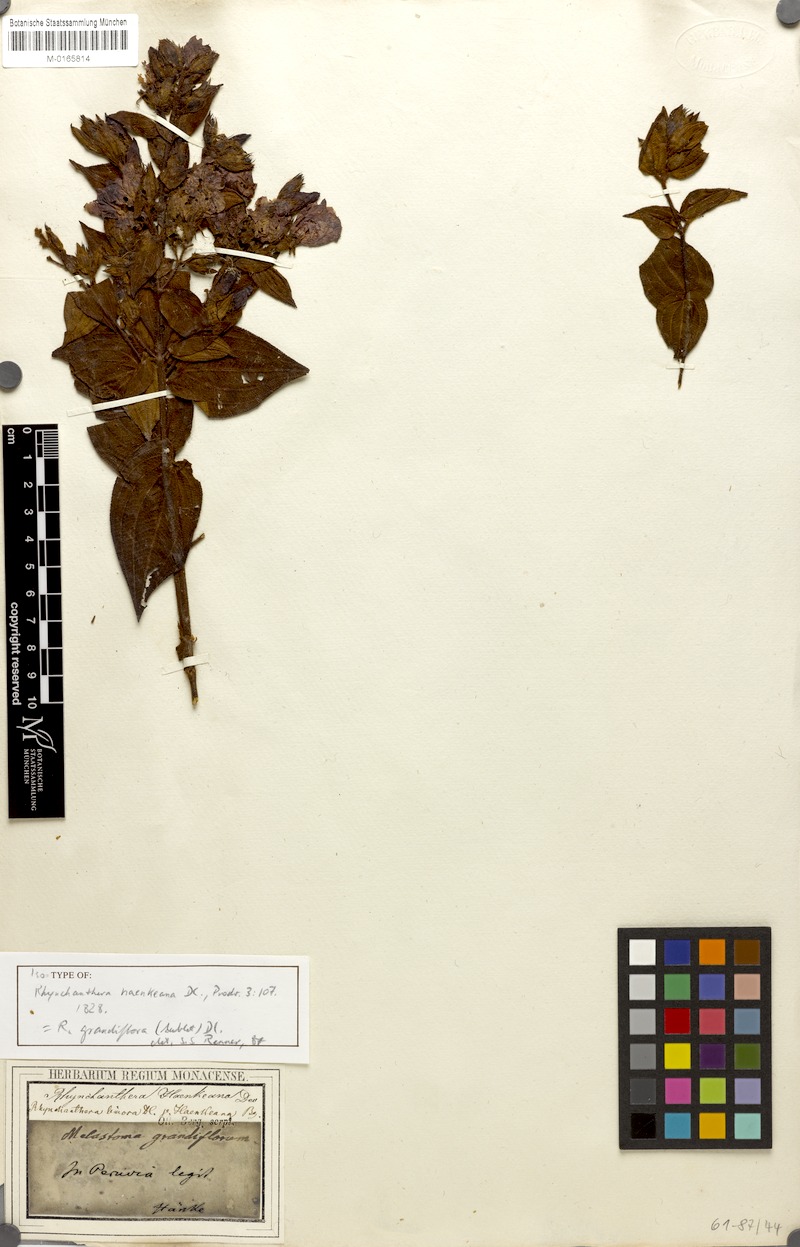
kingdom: Plantae
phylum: Tracheophyta
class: Magnoliopsida
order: Myrtales
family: Melastomataceae
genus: Rhynchanthera
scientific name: Rhynchanthera grandiflora
